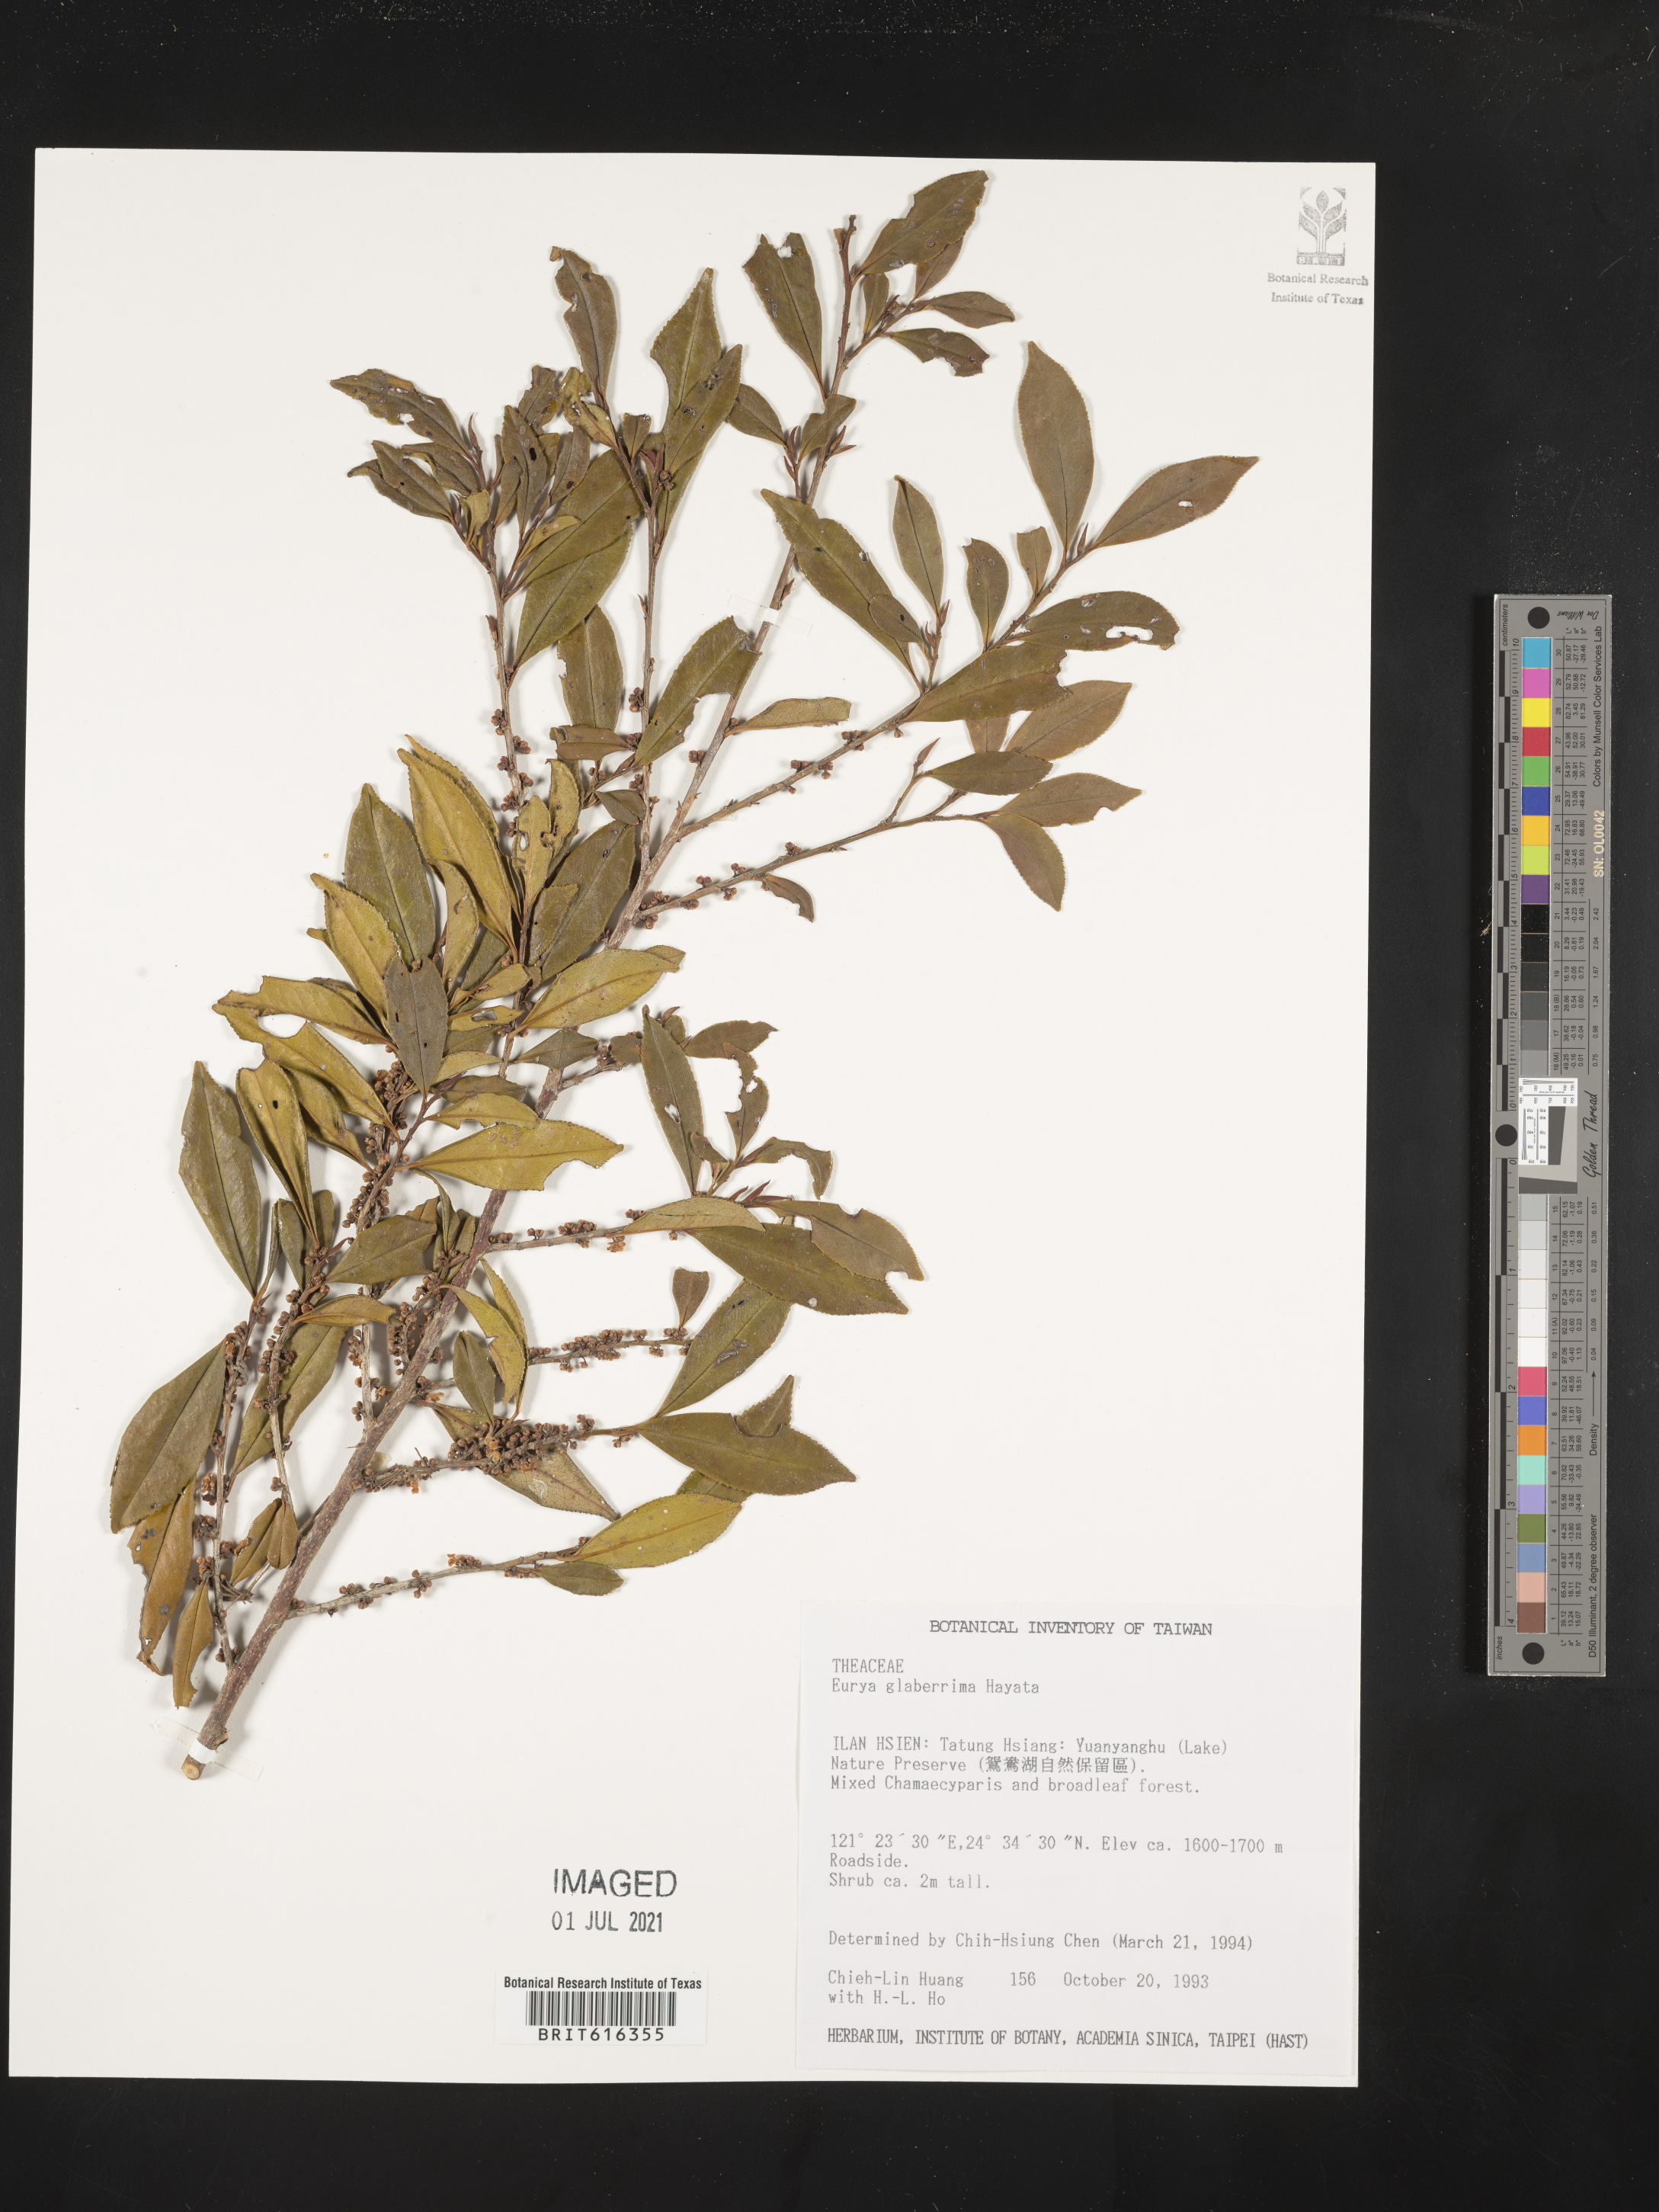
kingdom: Plantae
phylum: Tracheophyta
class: Magnoliopsida
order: Ericales
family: Pentaphylacaceae
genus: Eurya
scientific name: Eurya glaberrima
